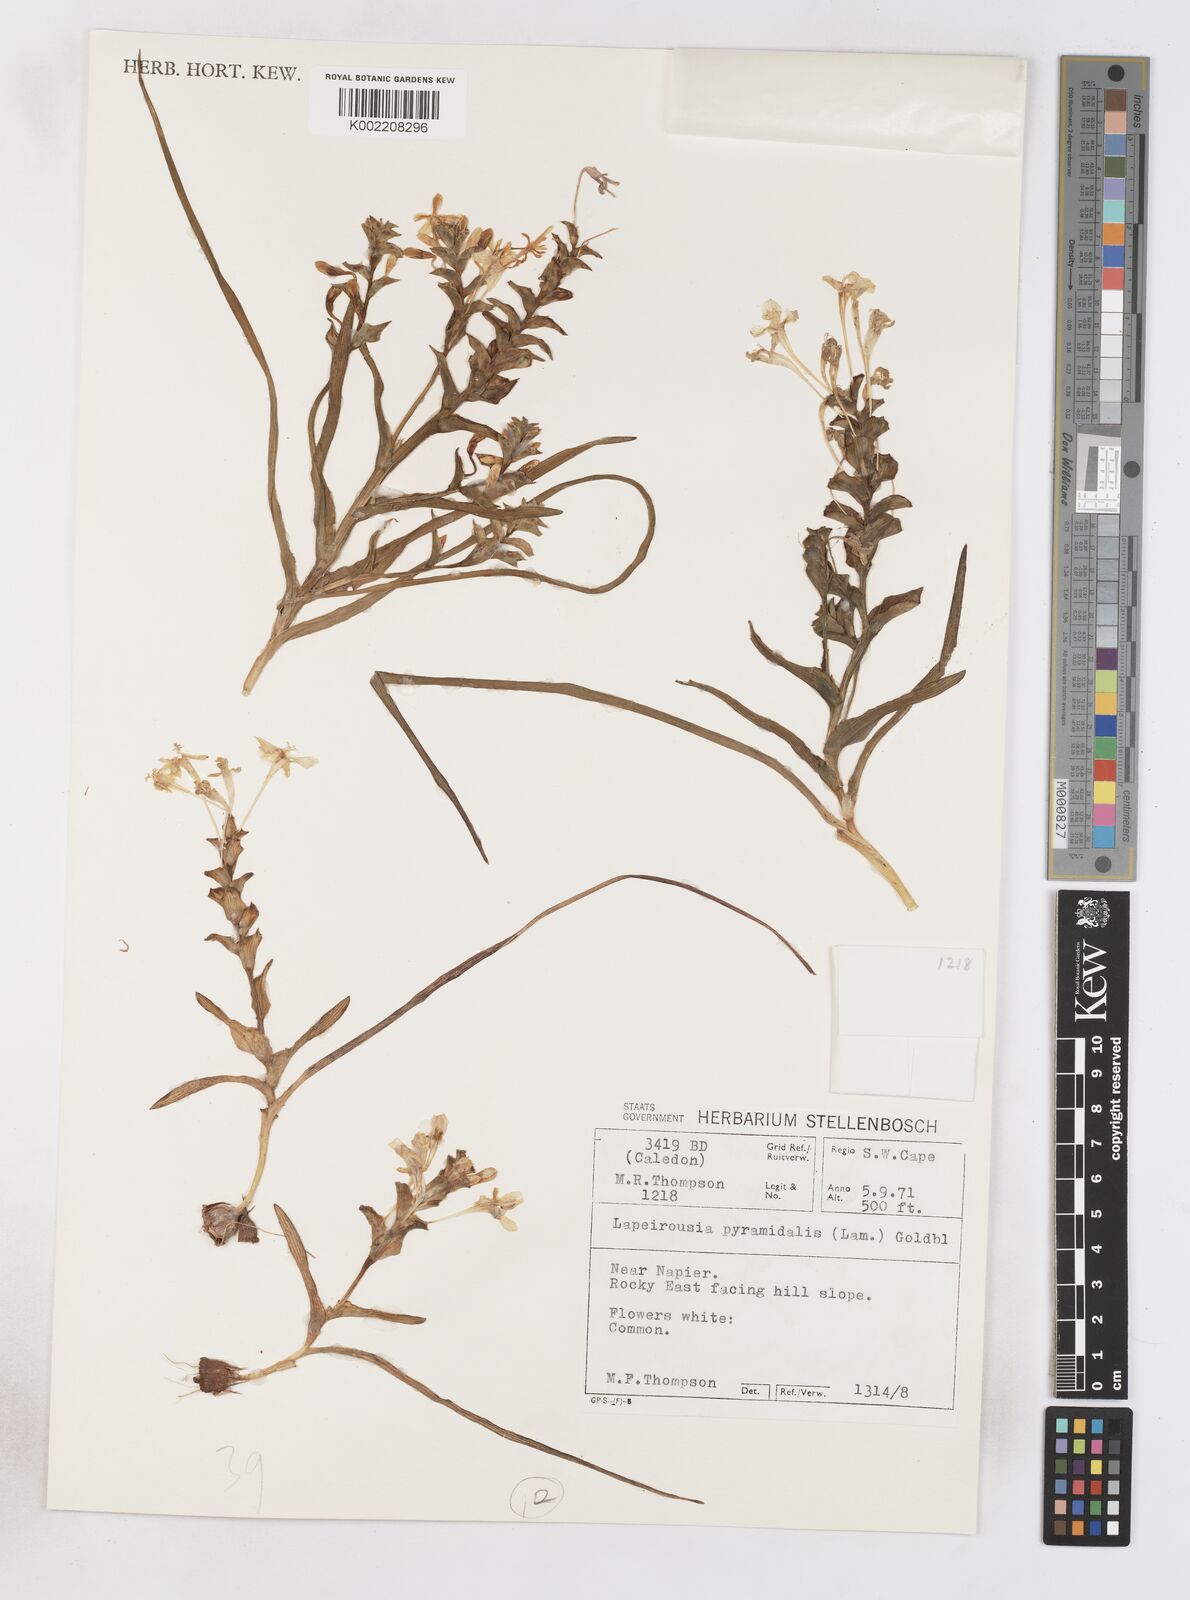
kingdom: Plantae
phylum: Tracheophyta
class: Liliopsida
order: Asparagales
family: Iridaceae
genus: Lapeirousia
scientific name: Lapeirousia pyramidalis
